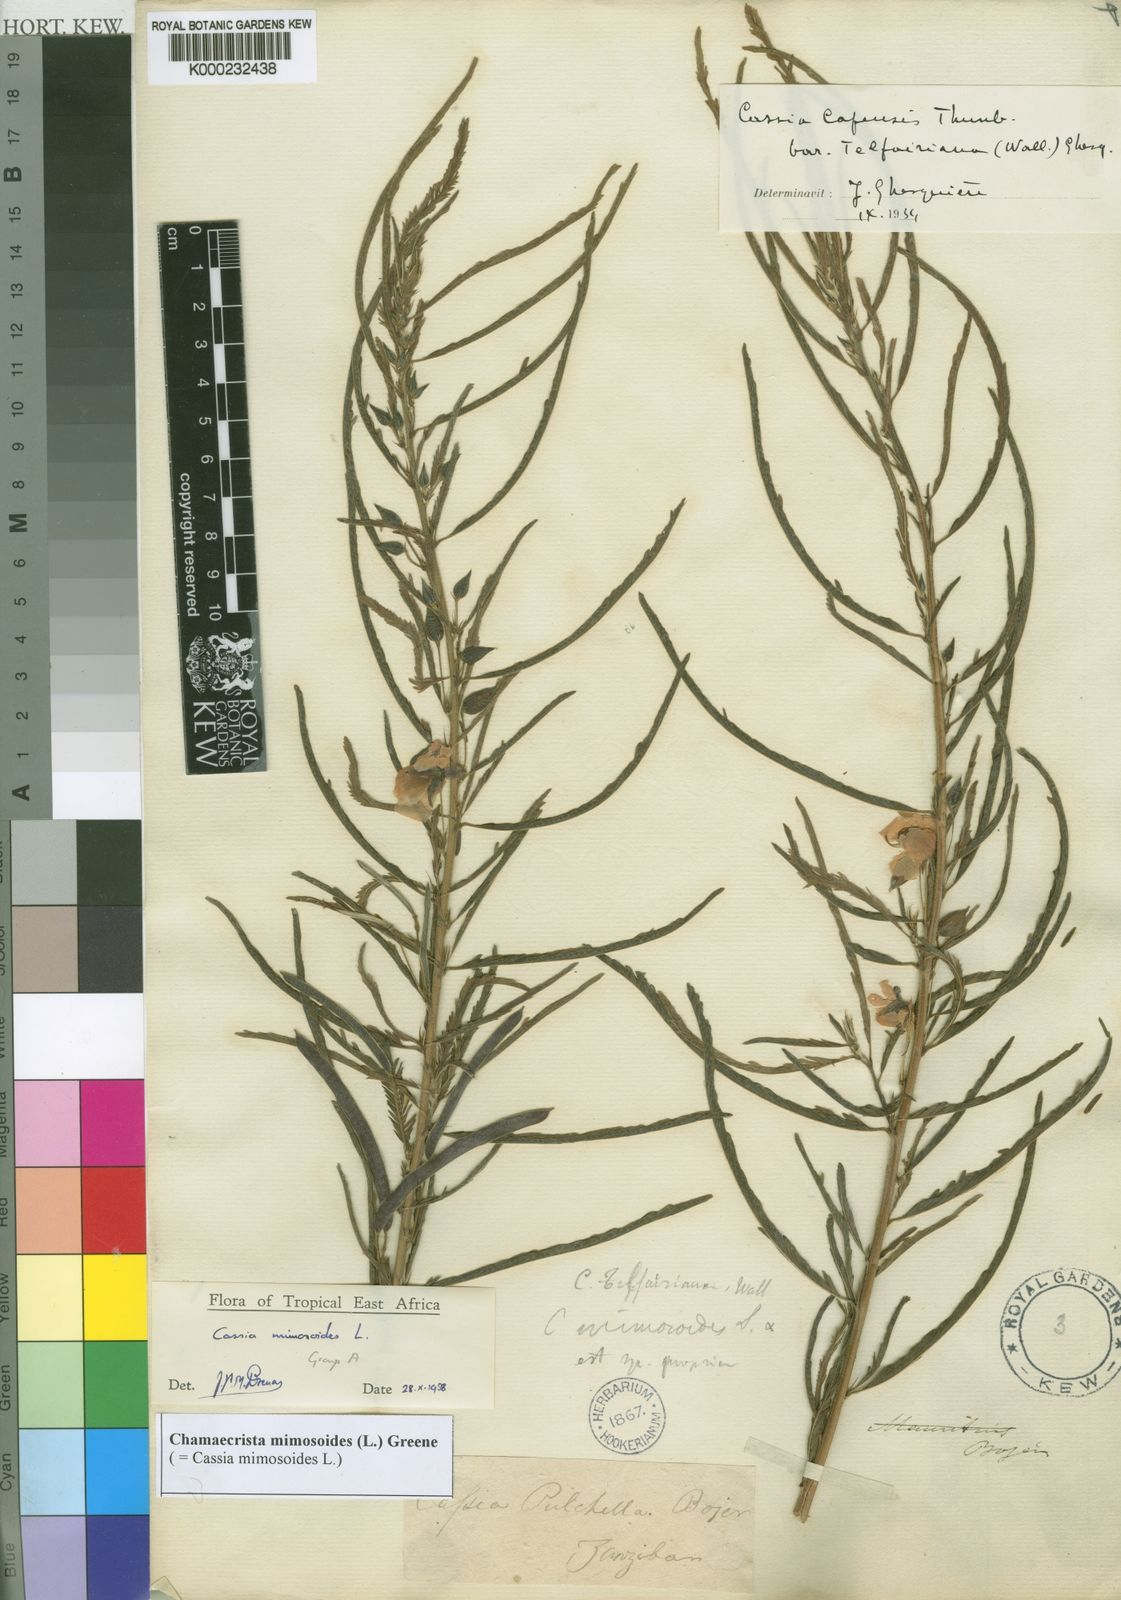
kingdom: Plantae
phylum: Tracheophyta
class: Magnoliopsida
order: Fabales
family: Fabaceae
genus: Chamaecrista
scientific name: Chamaecrista mimosoides
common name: Fish-bone cassia
